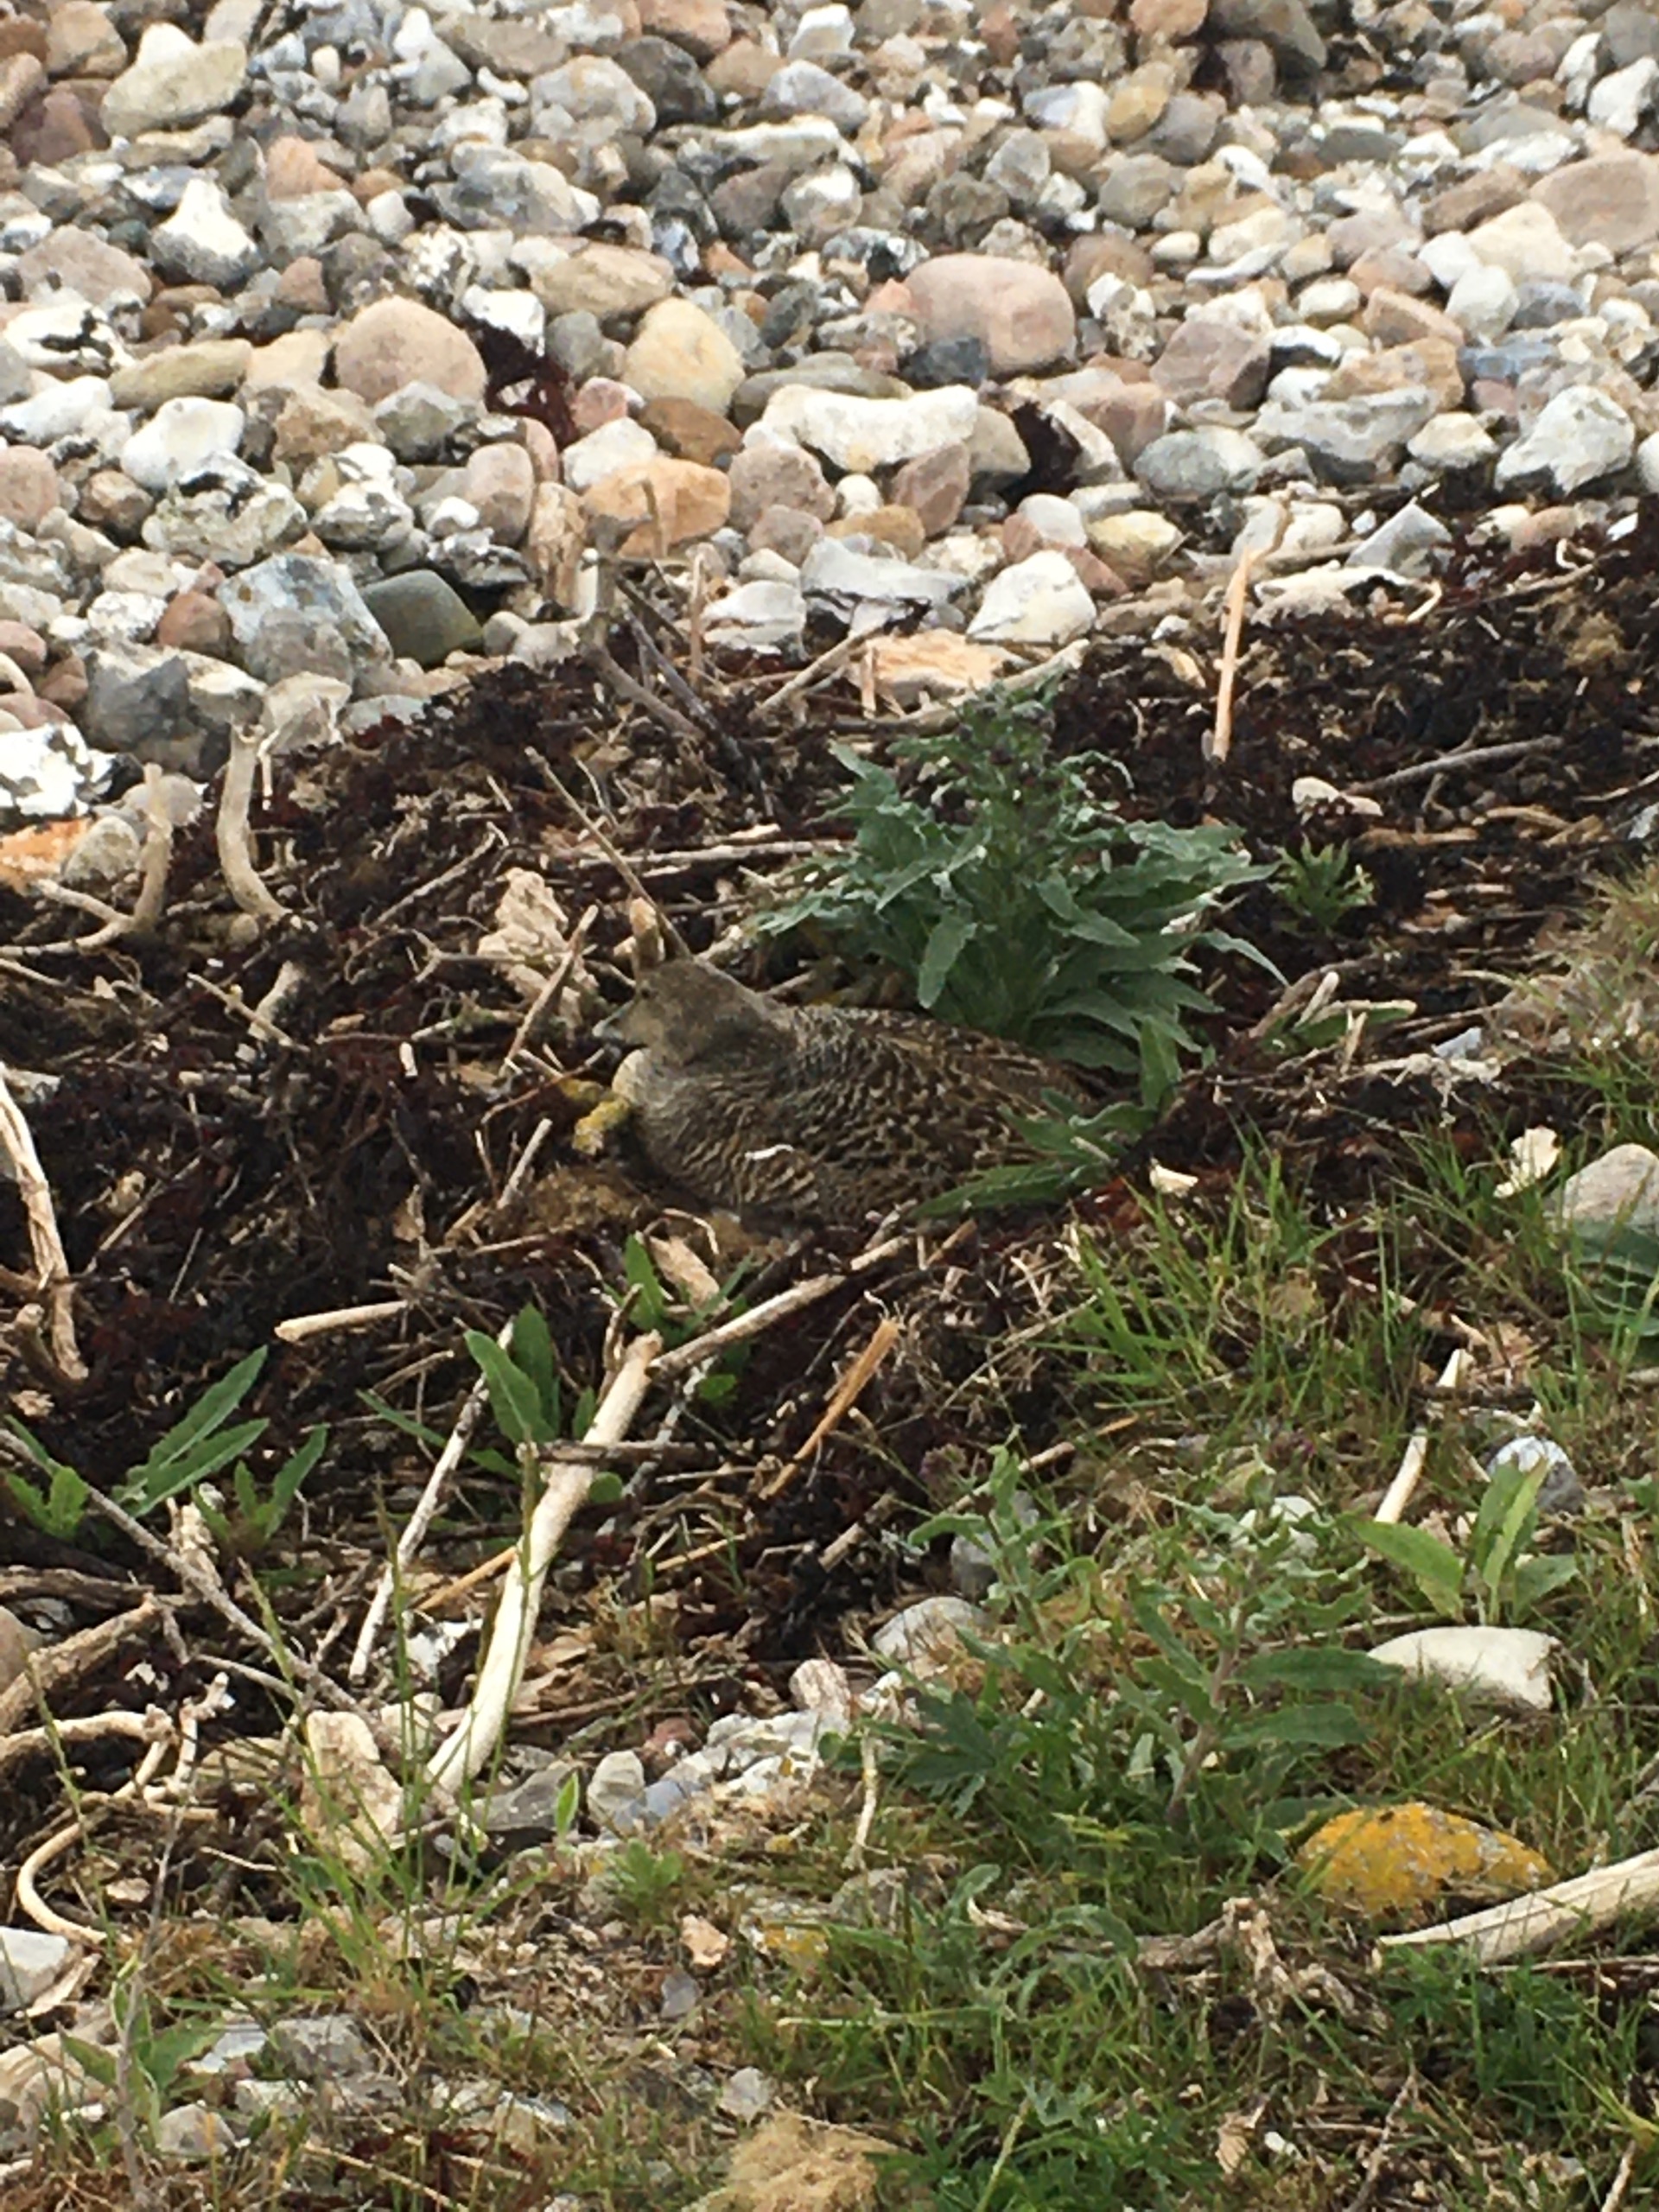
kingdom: Animalia
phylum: Chordata
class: Aves
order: Anseriformes
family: Anatidae
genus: Somateria
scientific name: Somateria mollissima
